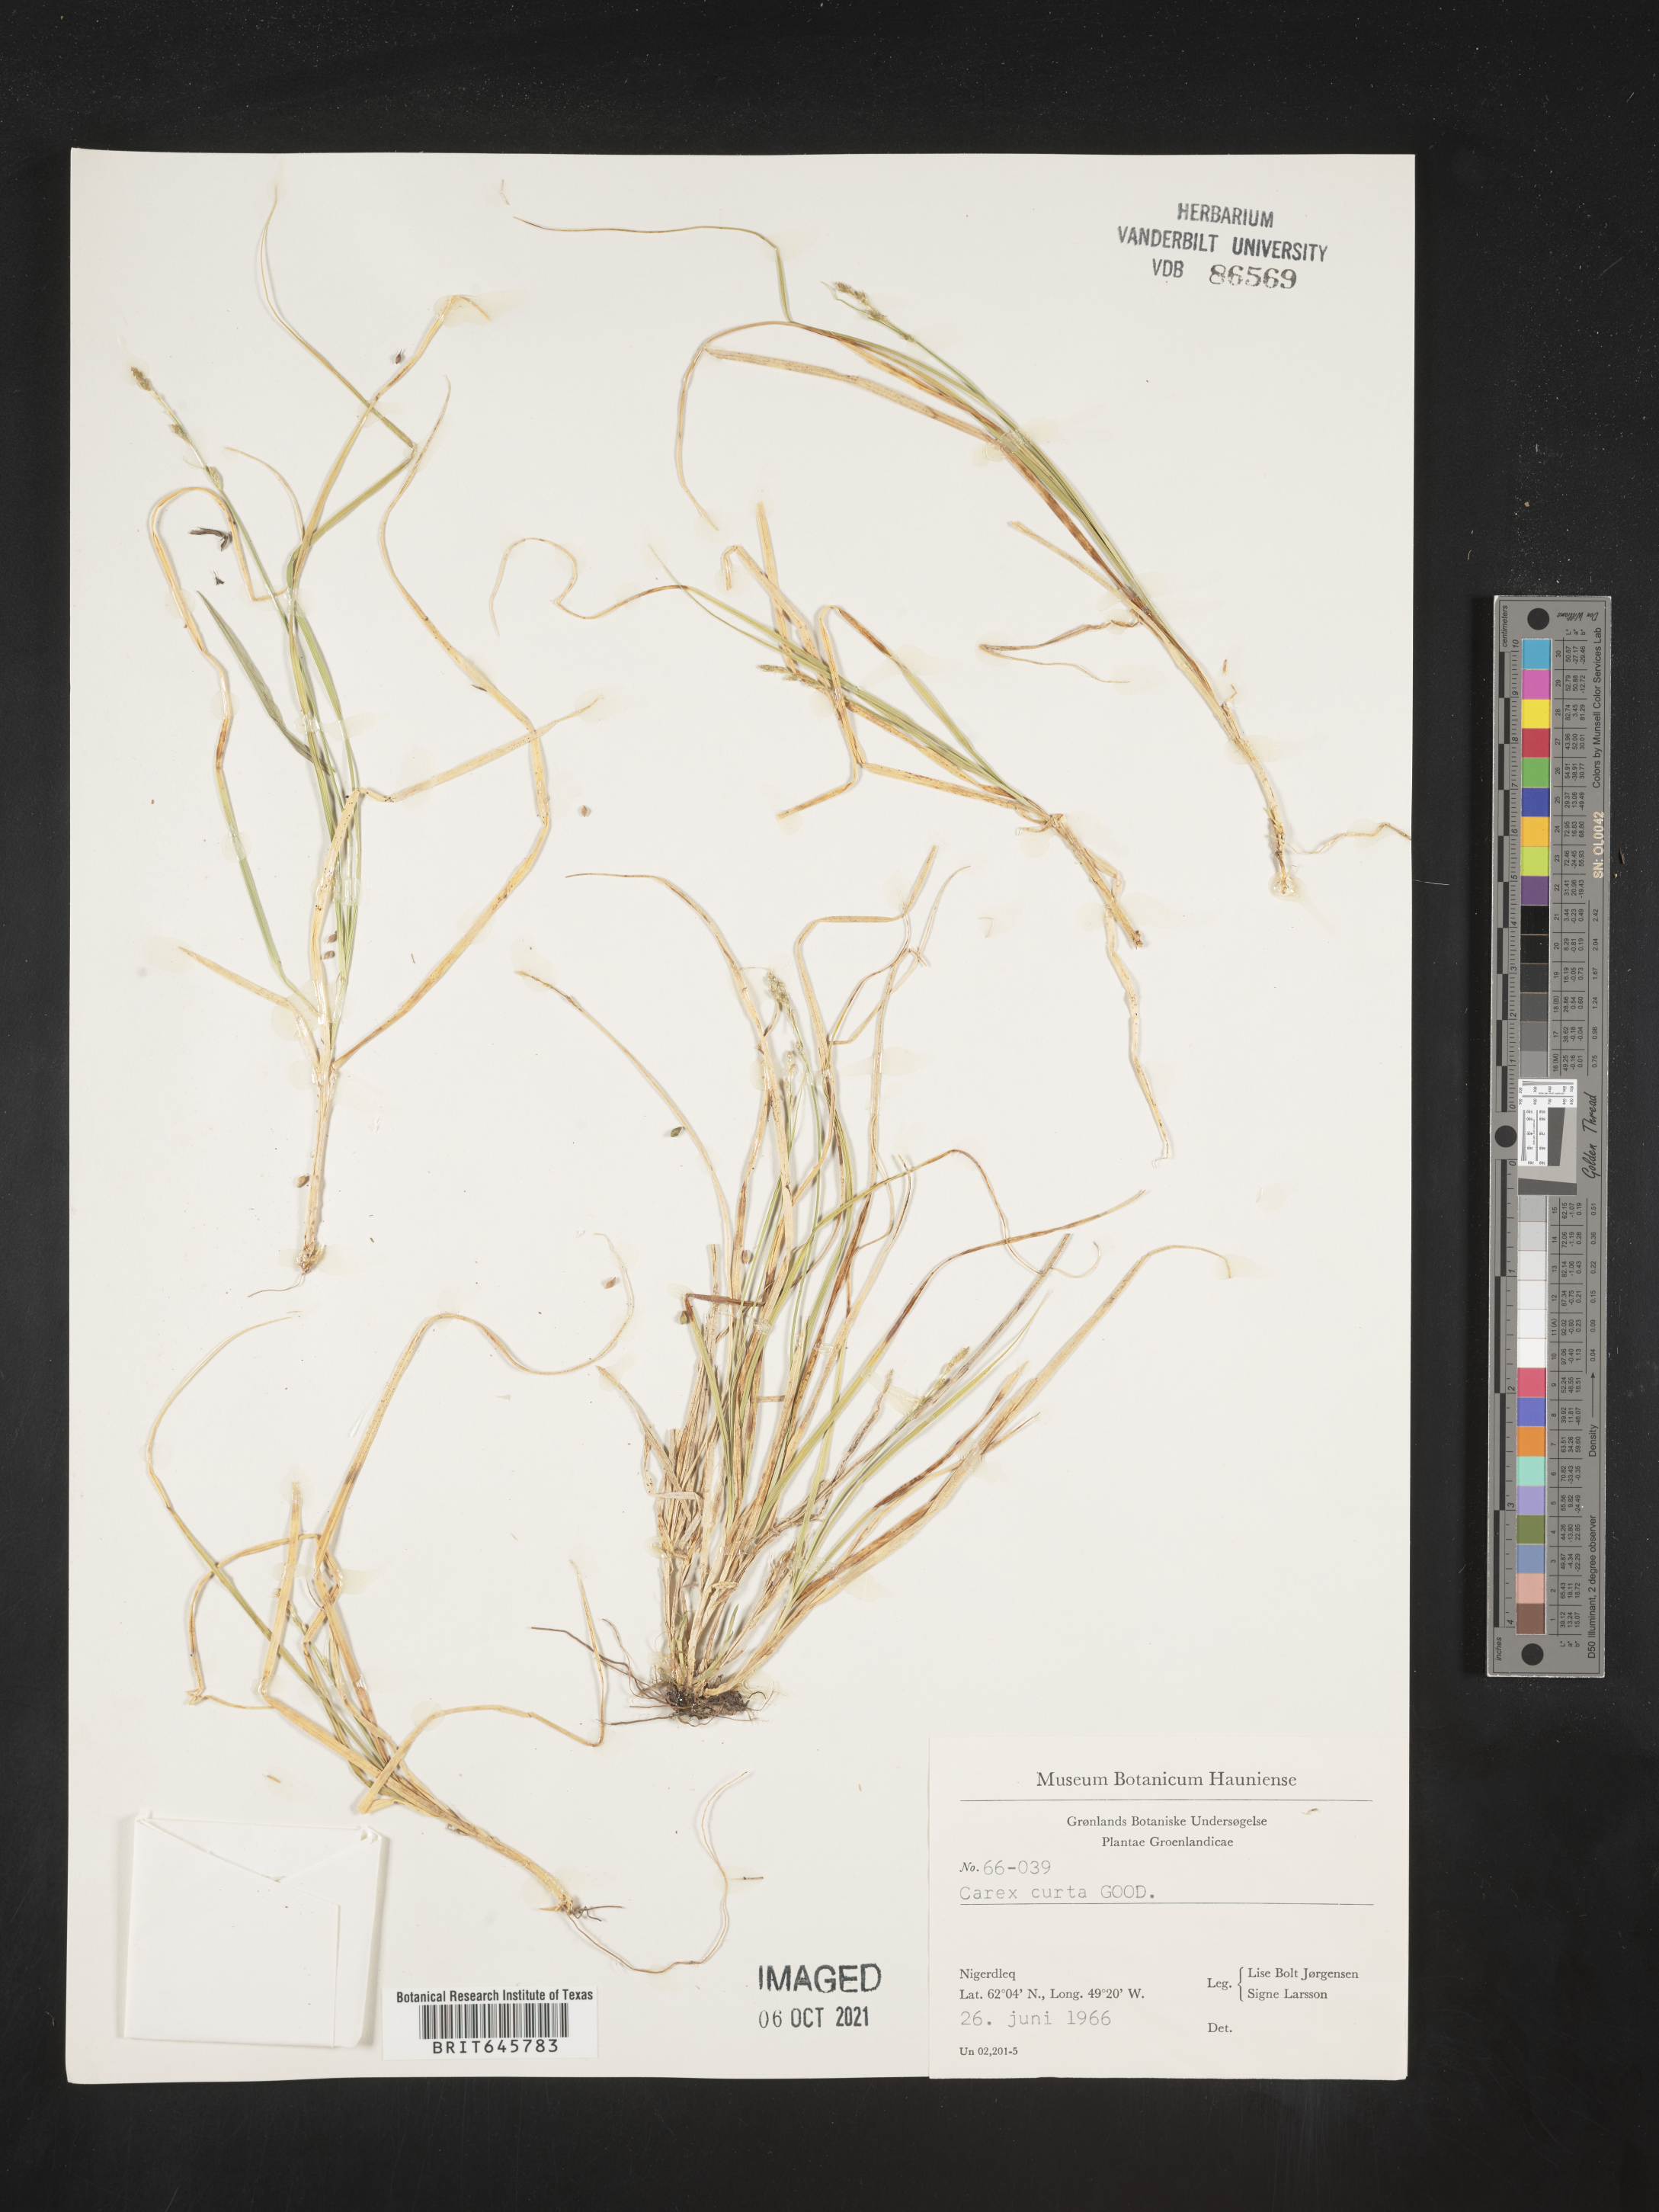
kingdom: Plantae
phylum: Tracheophyta
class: Liliopsida
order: Poales
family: Cyperaceae
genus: Carex
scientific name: Carex curta
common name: White sedge
